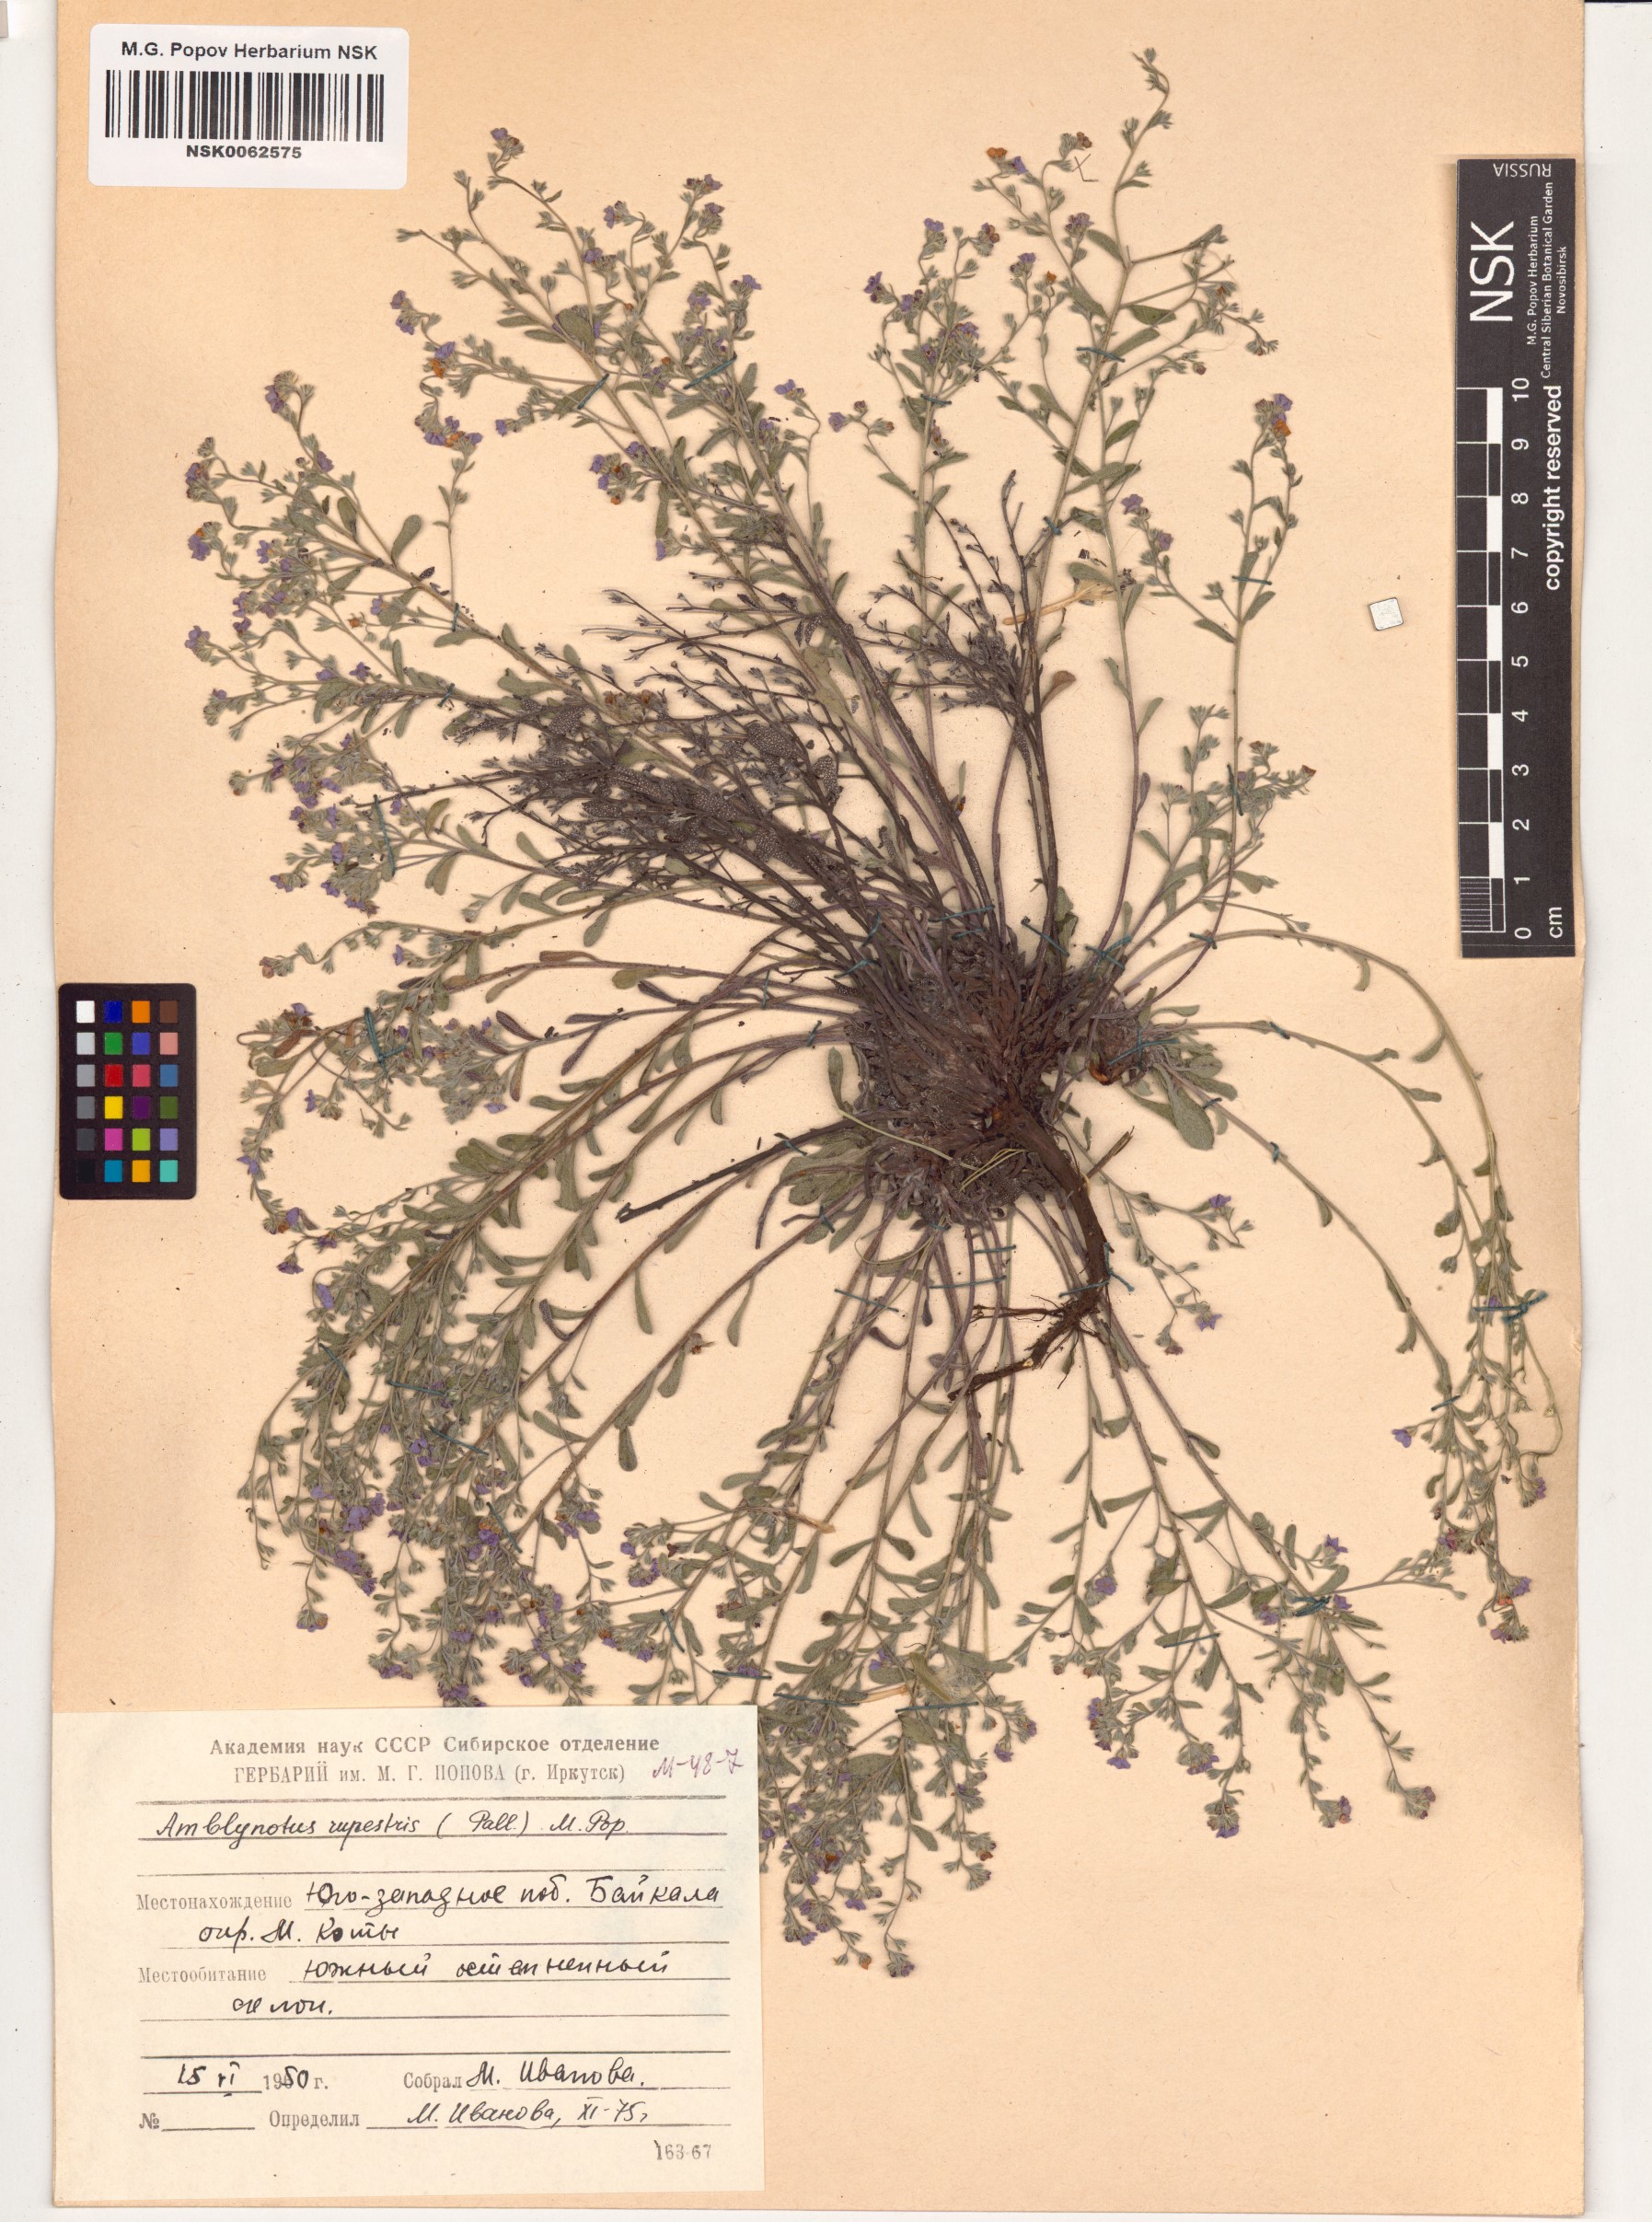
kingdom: Plantae
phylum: Tracheophyta
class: Magnoliopsida
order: Boraginales
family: Boraginaceae
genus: Eritrichium
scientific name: Eritrichium rupestre
